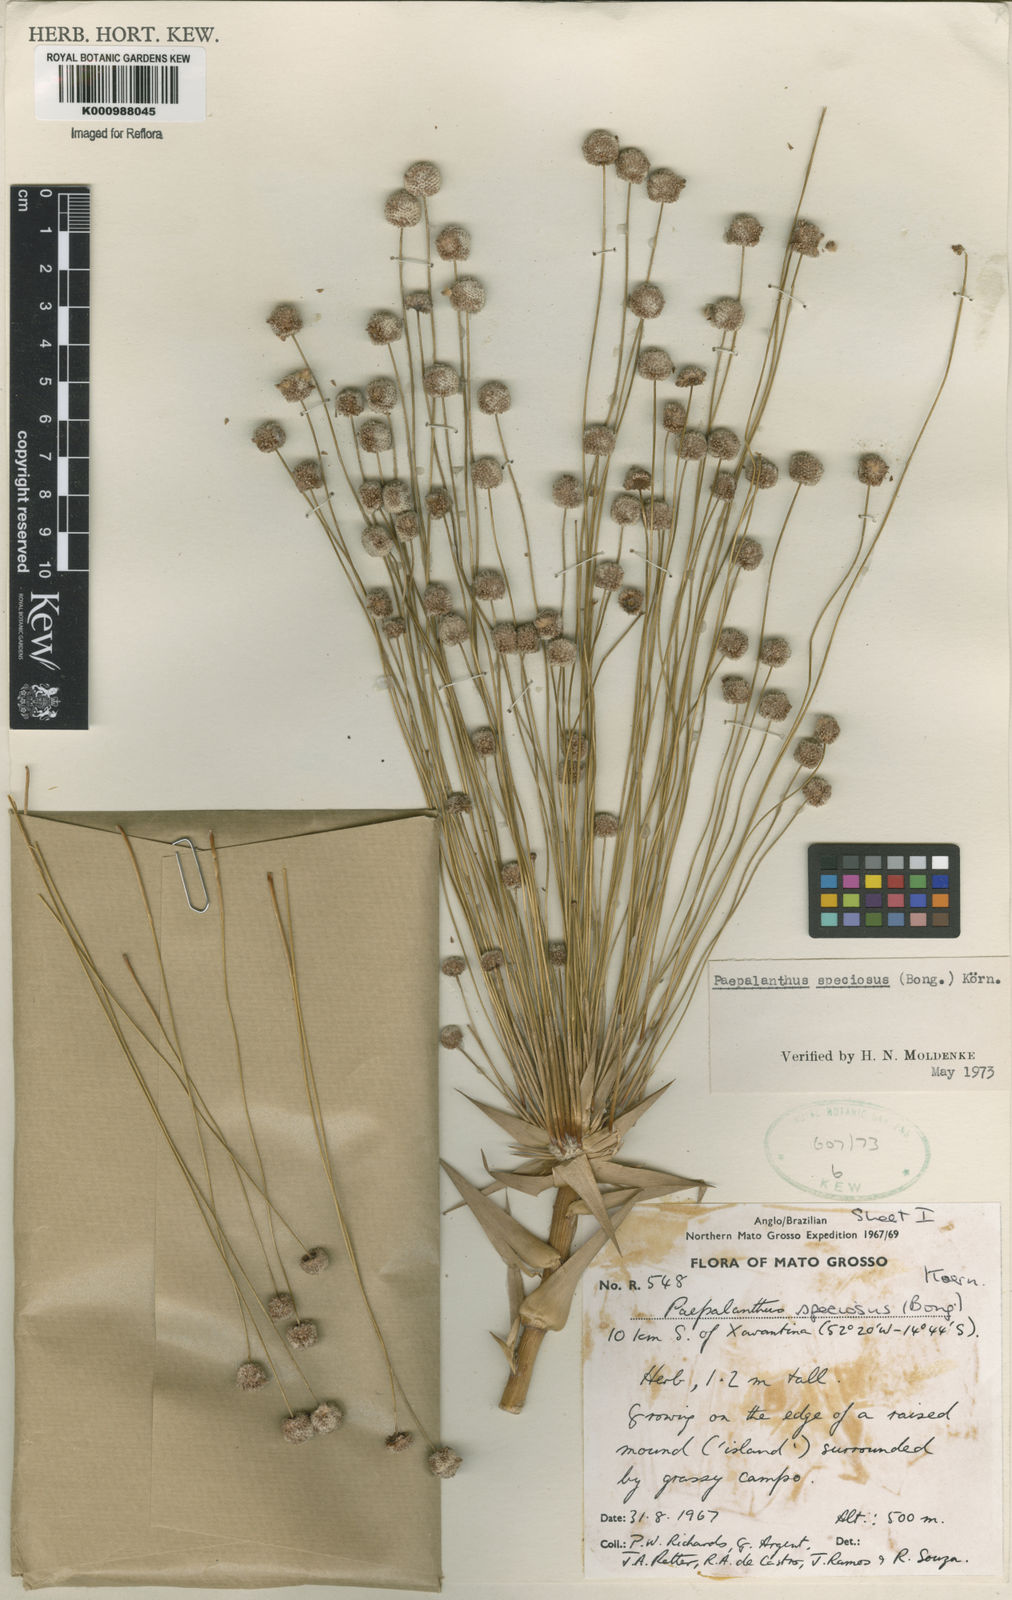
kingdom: Plantae
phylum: Tracheophyta
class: Liliopsida
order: Poales
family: Eriocaulaceae
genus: Paepalanthus
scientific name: Paepalanthus
